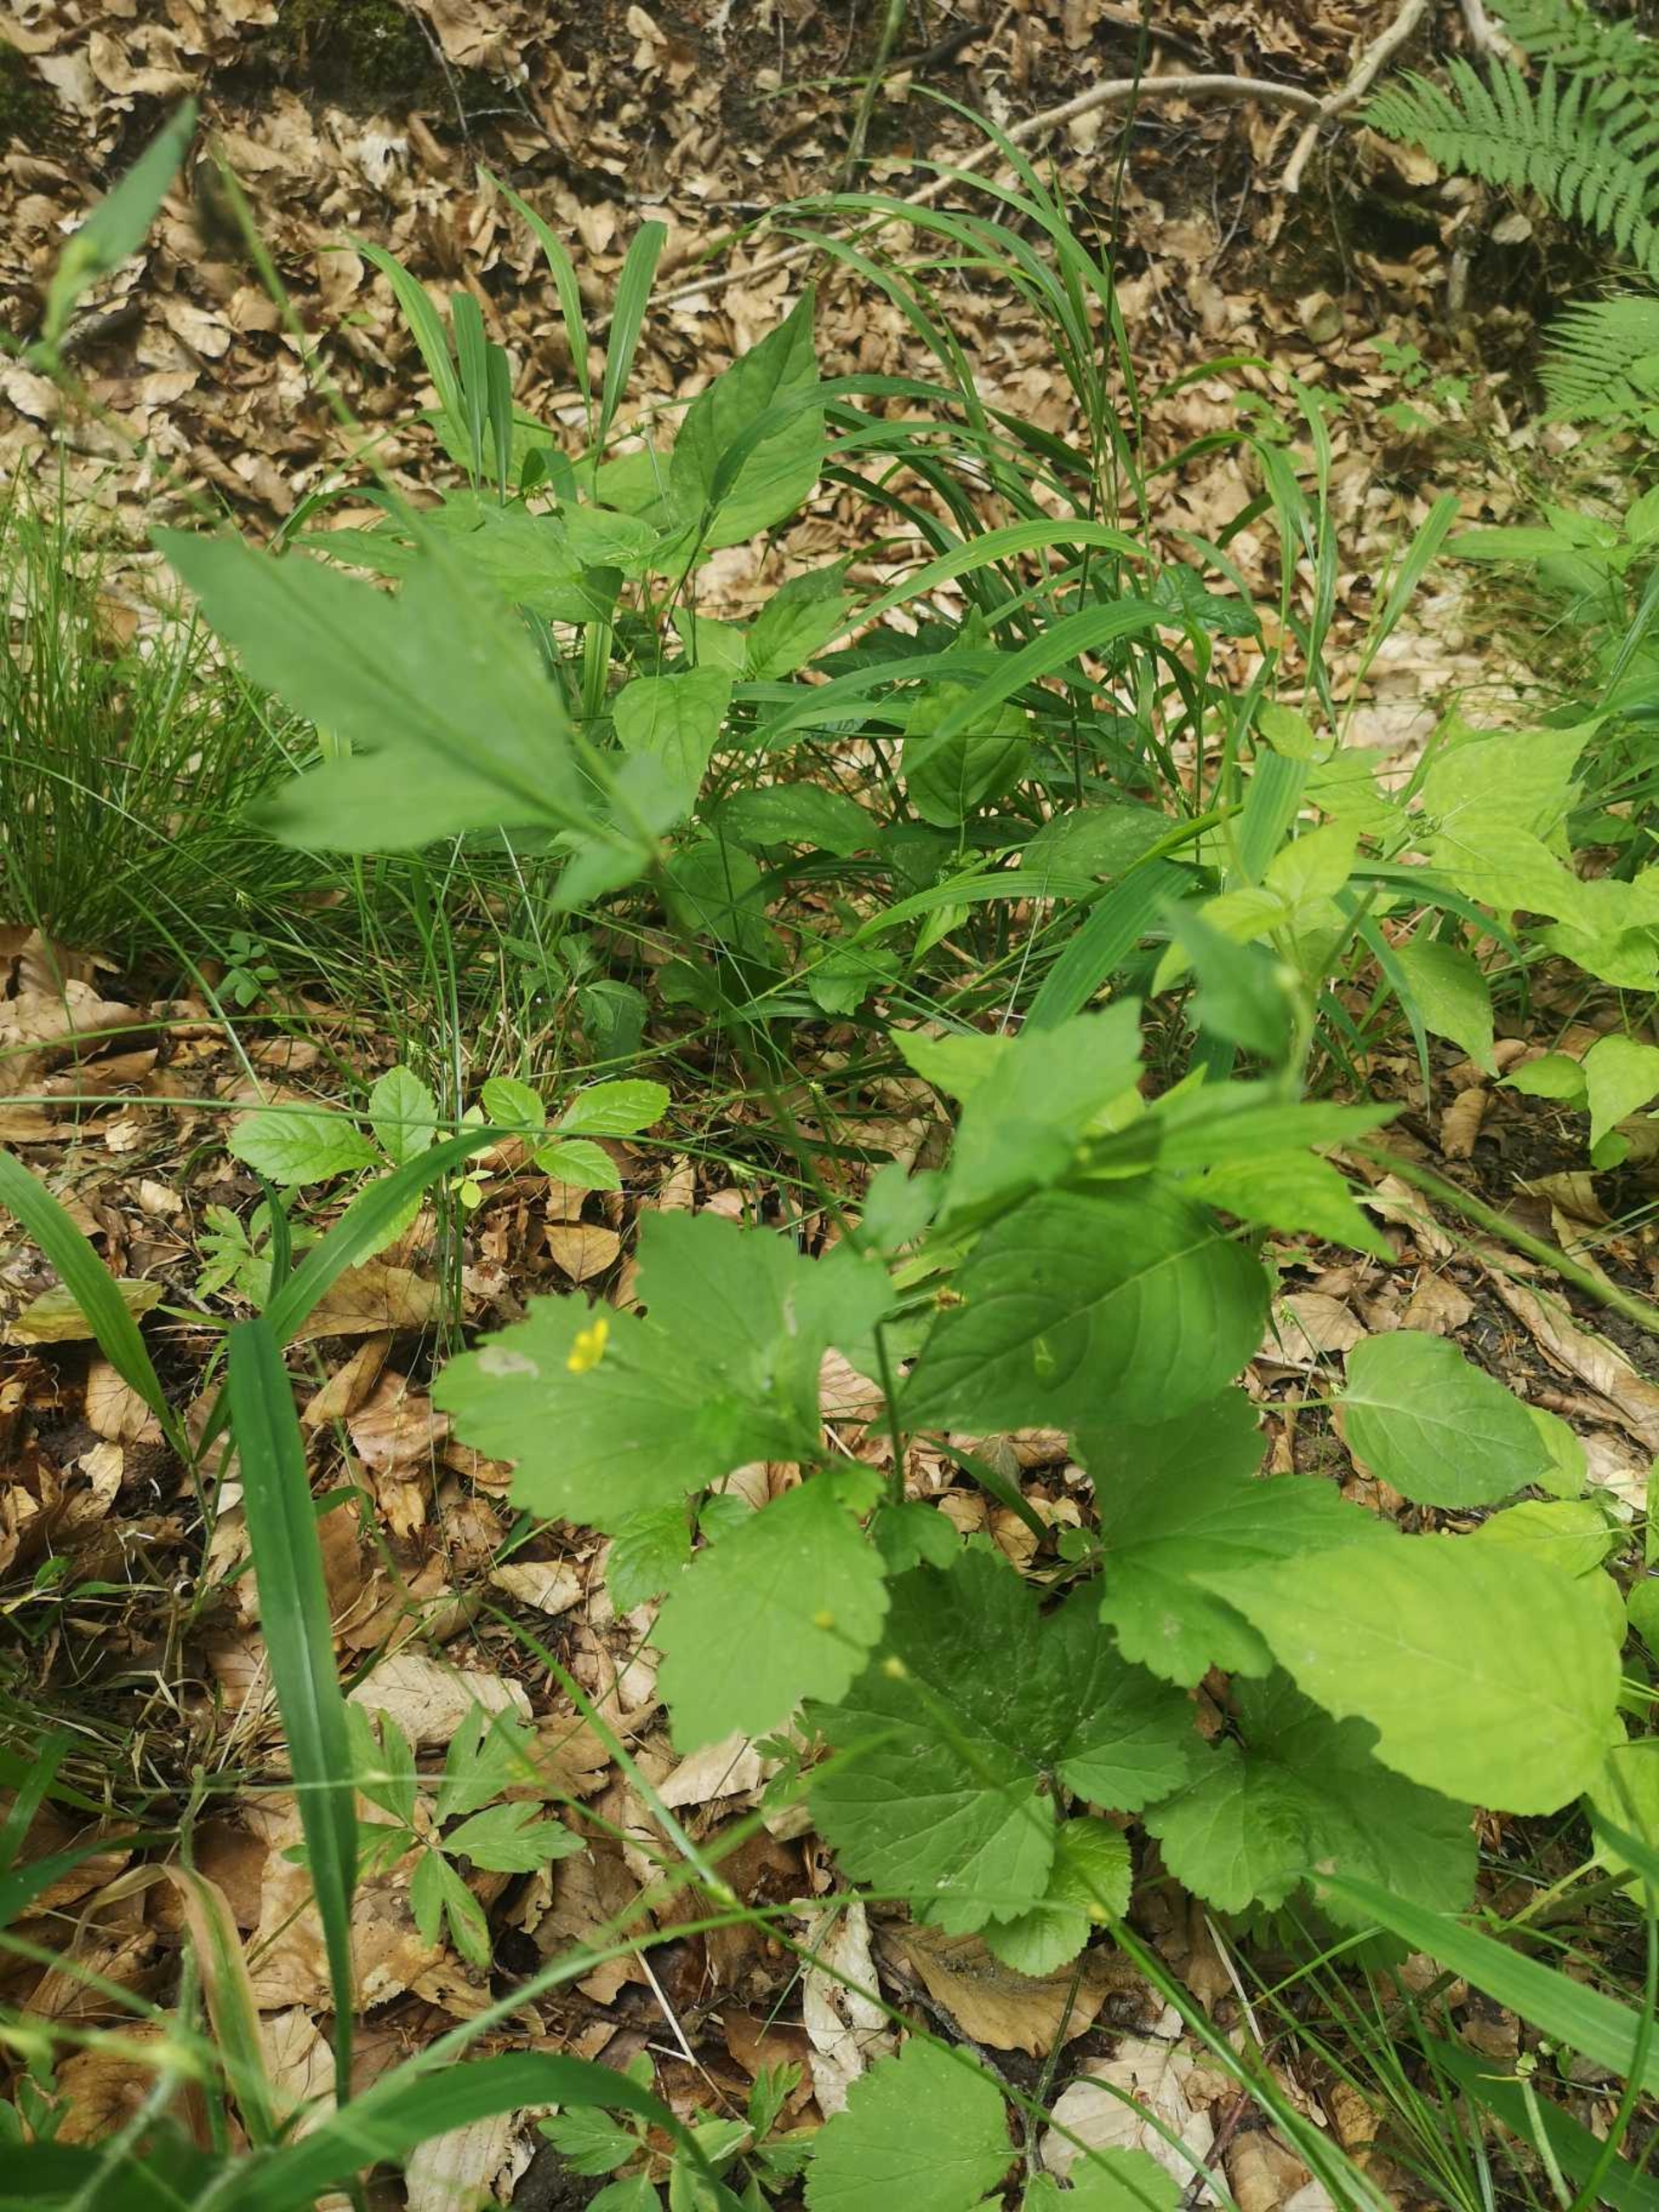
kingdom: Plantae
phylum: Tracheophyta
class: Magnoliopsida
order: Rosales
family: Rosaceae
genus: Geum
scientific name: Geum urbanum
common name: Feber-nellikerod
